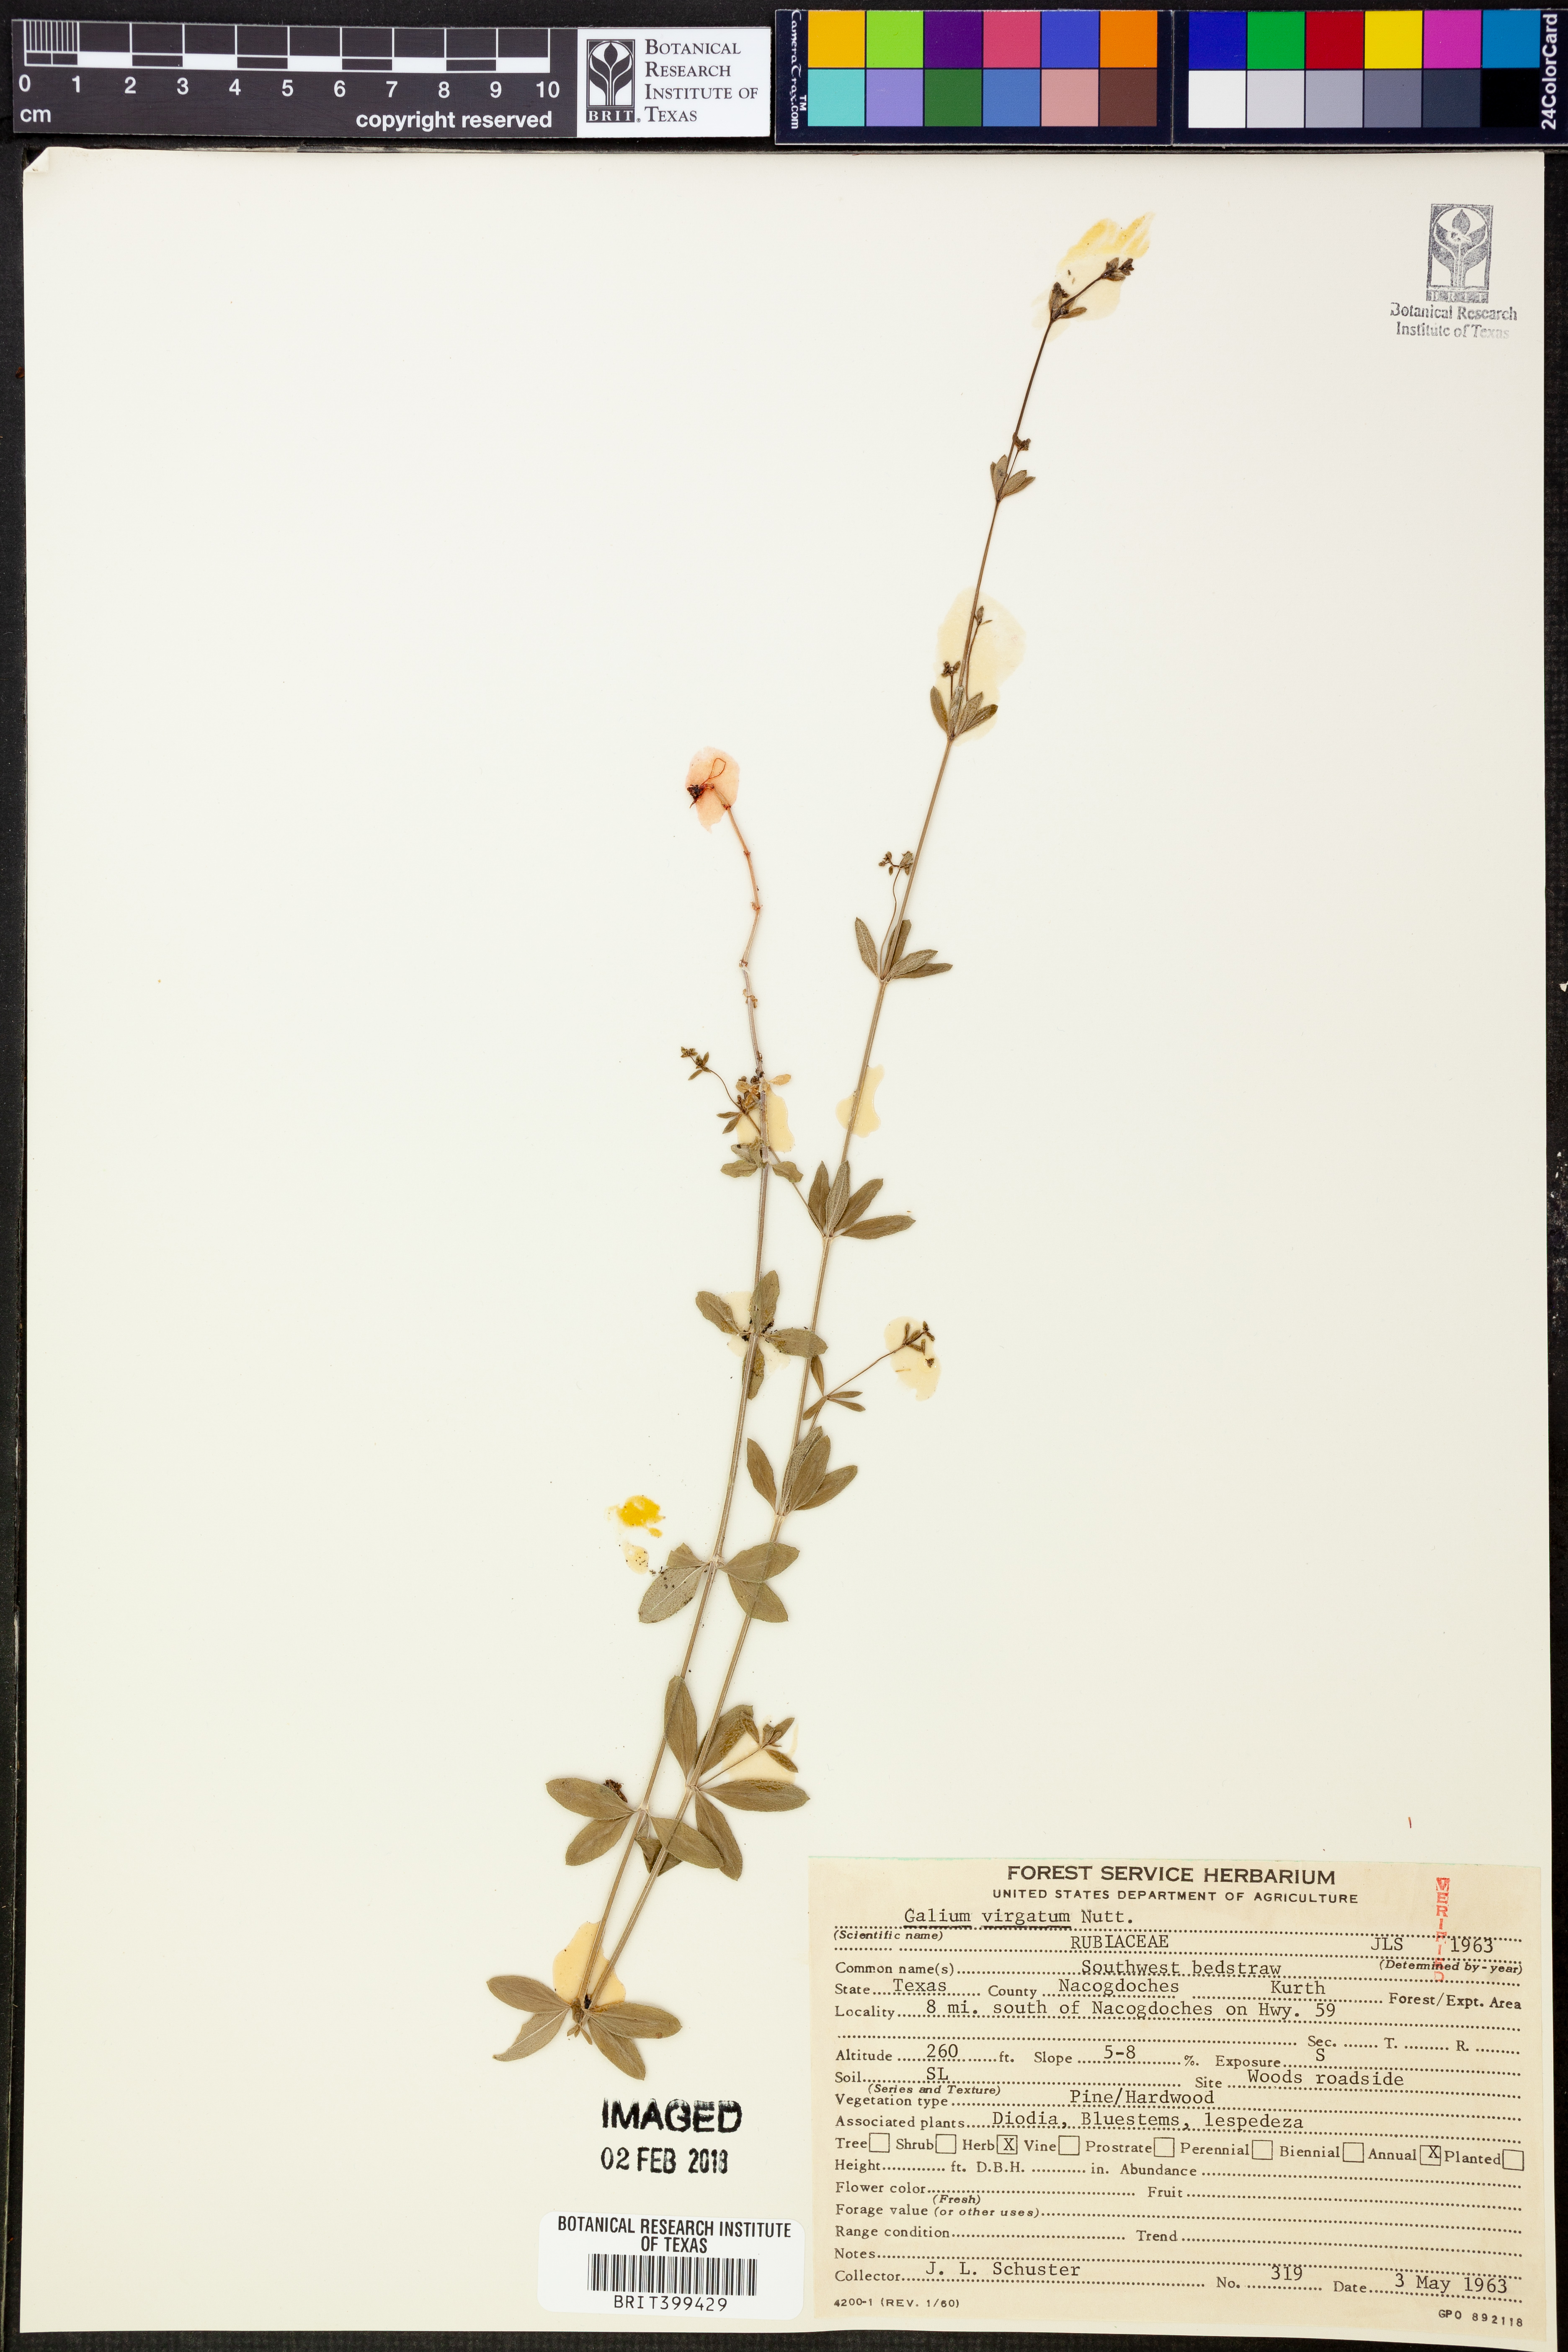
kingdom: Plantae
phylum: Tracheophyta
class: Magnoliopsida
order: Gentianales
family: Rubiaceae
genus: Galium
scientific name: Galium virgatum
